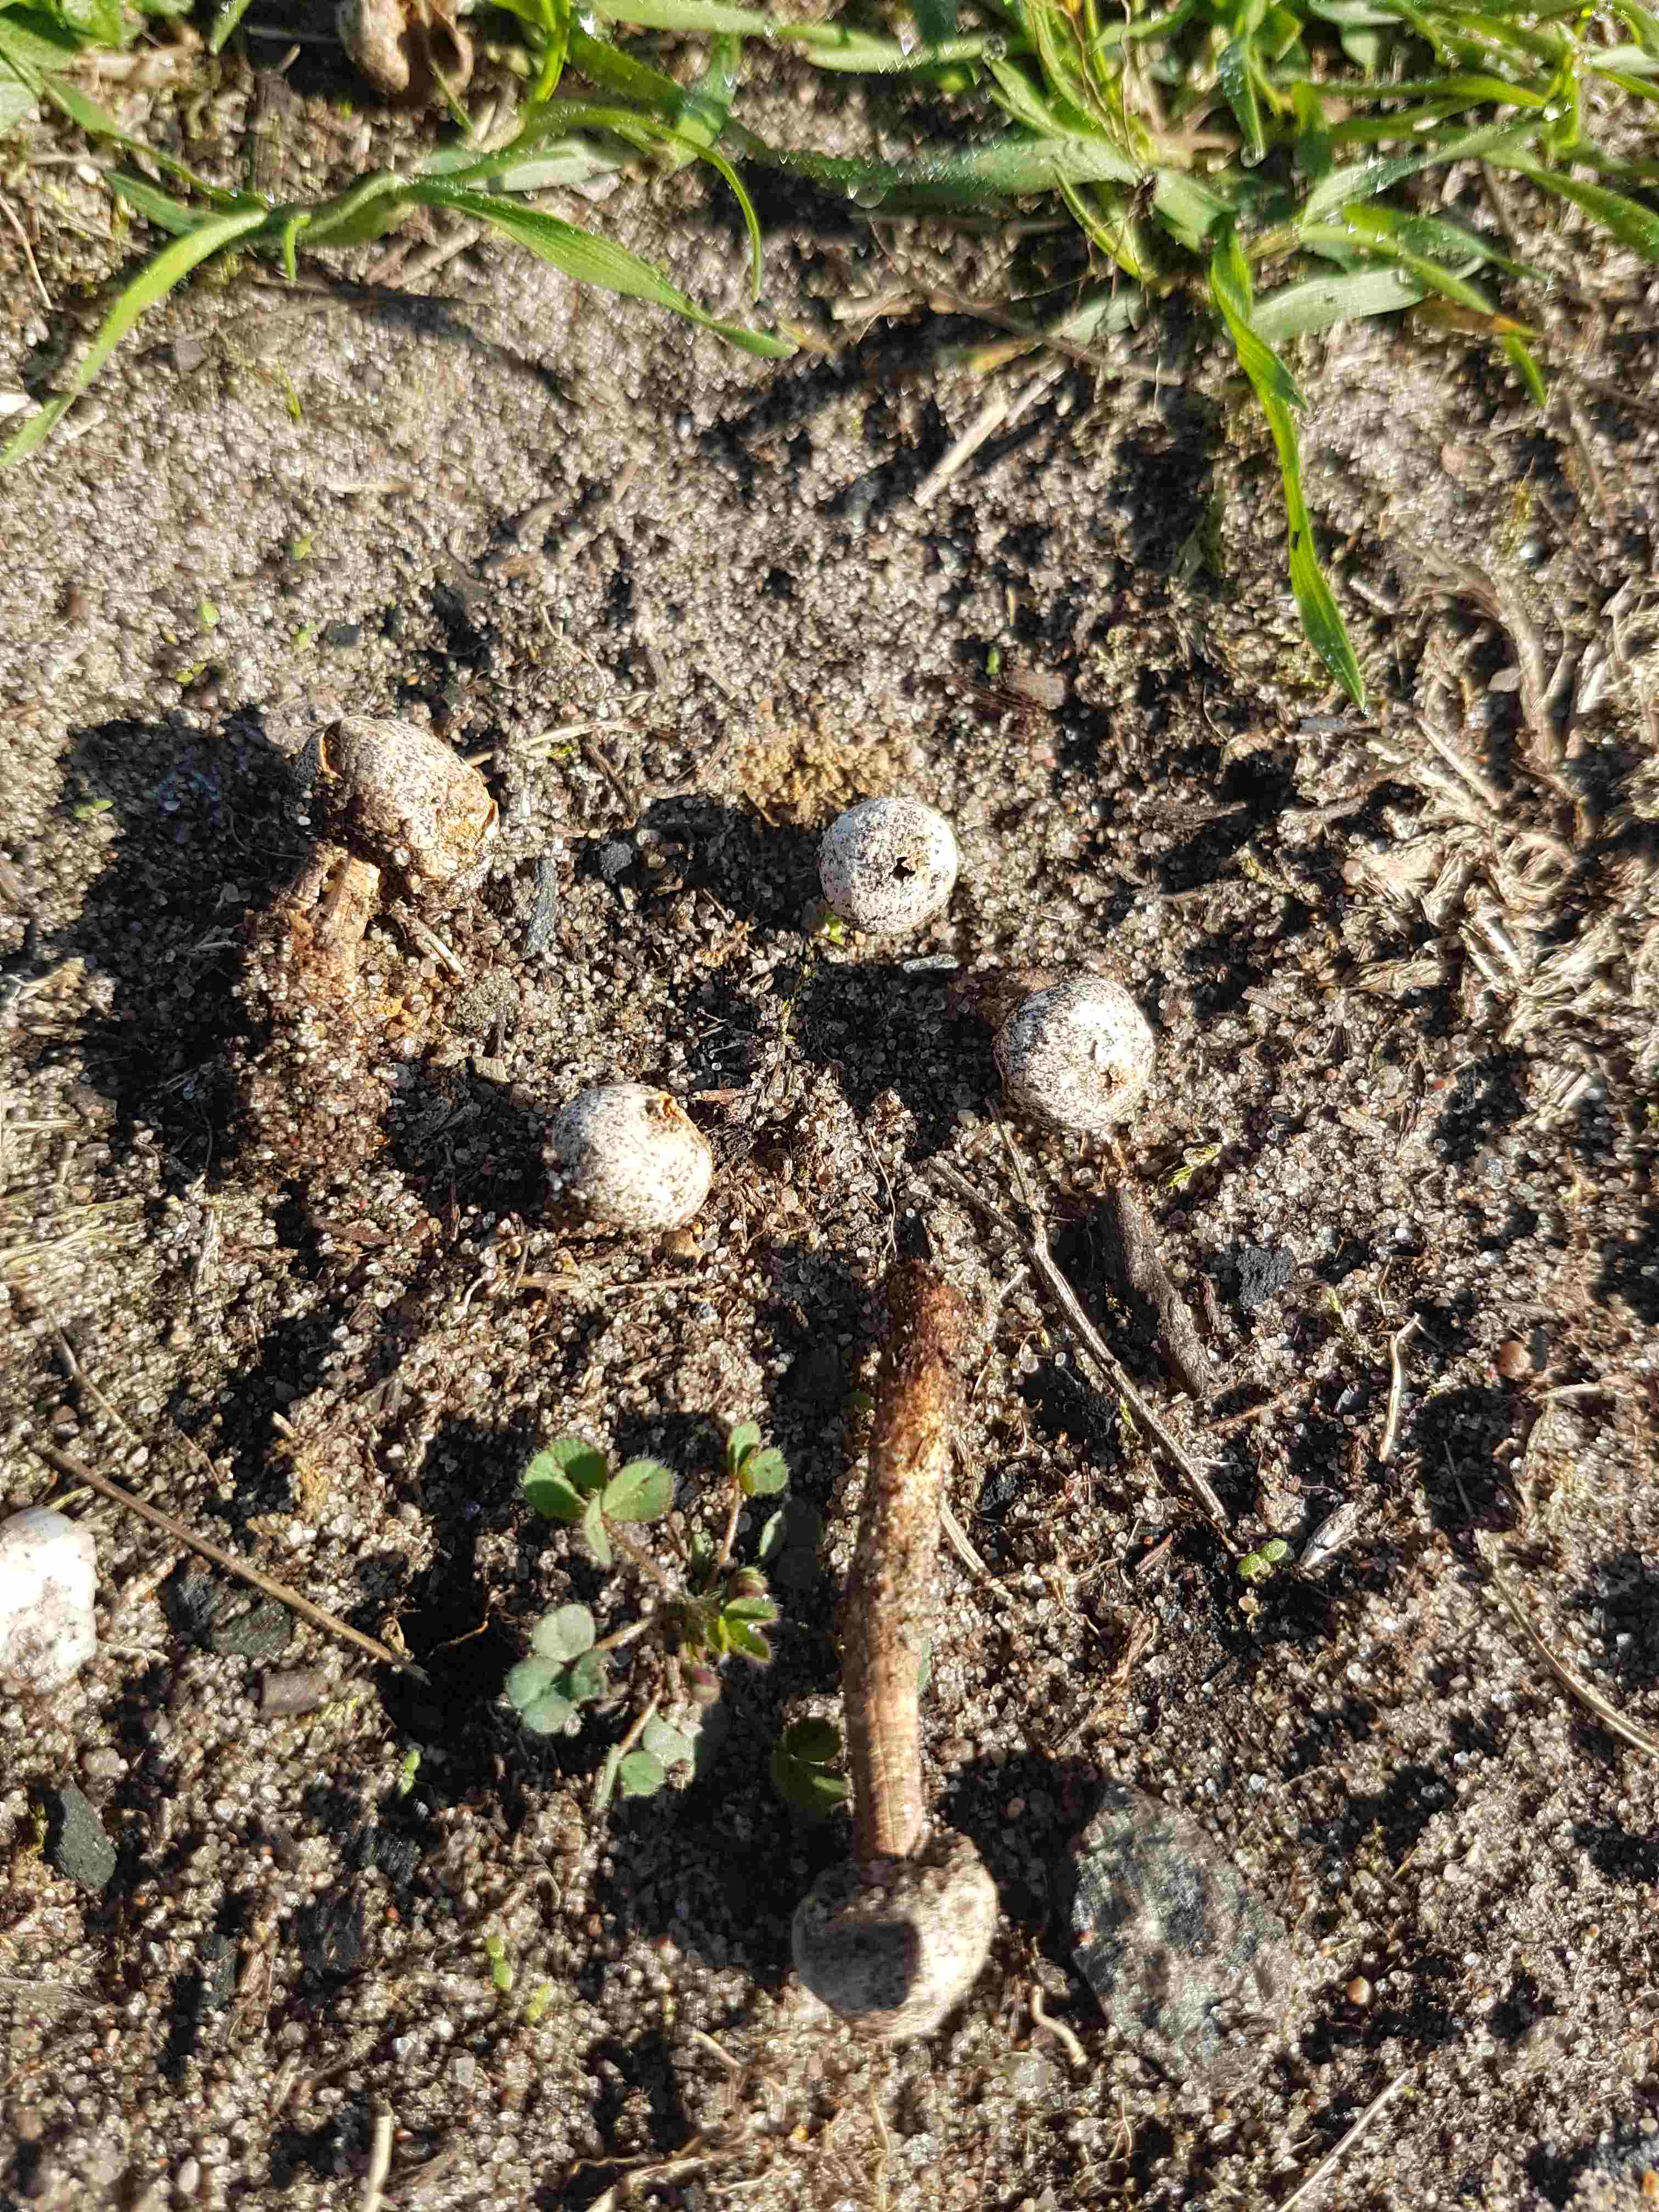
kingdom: Fungi
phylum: Basidiomycota
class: Agaricomycetes
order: Agaricales
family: Agaricaceae
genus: Tulostoma
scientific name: Tulostoma
